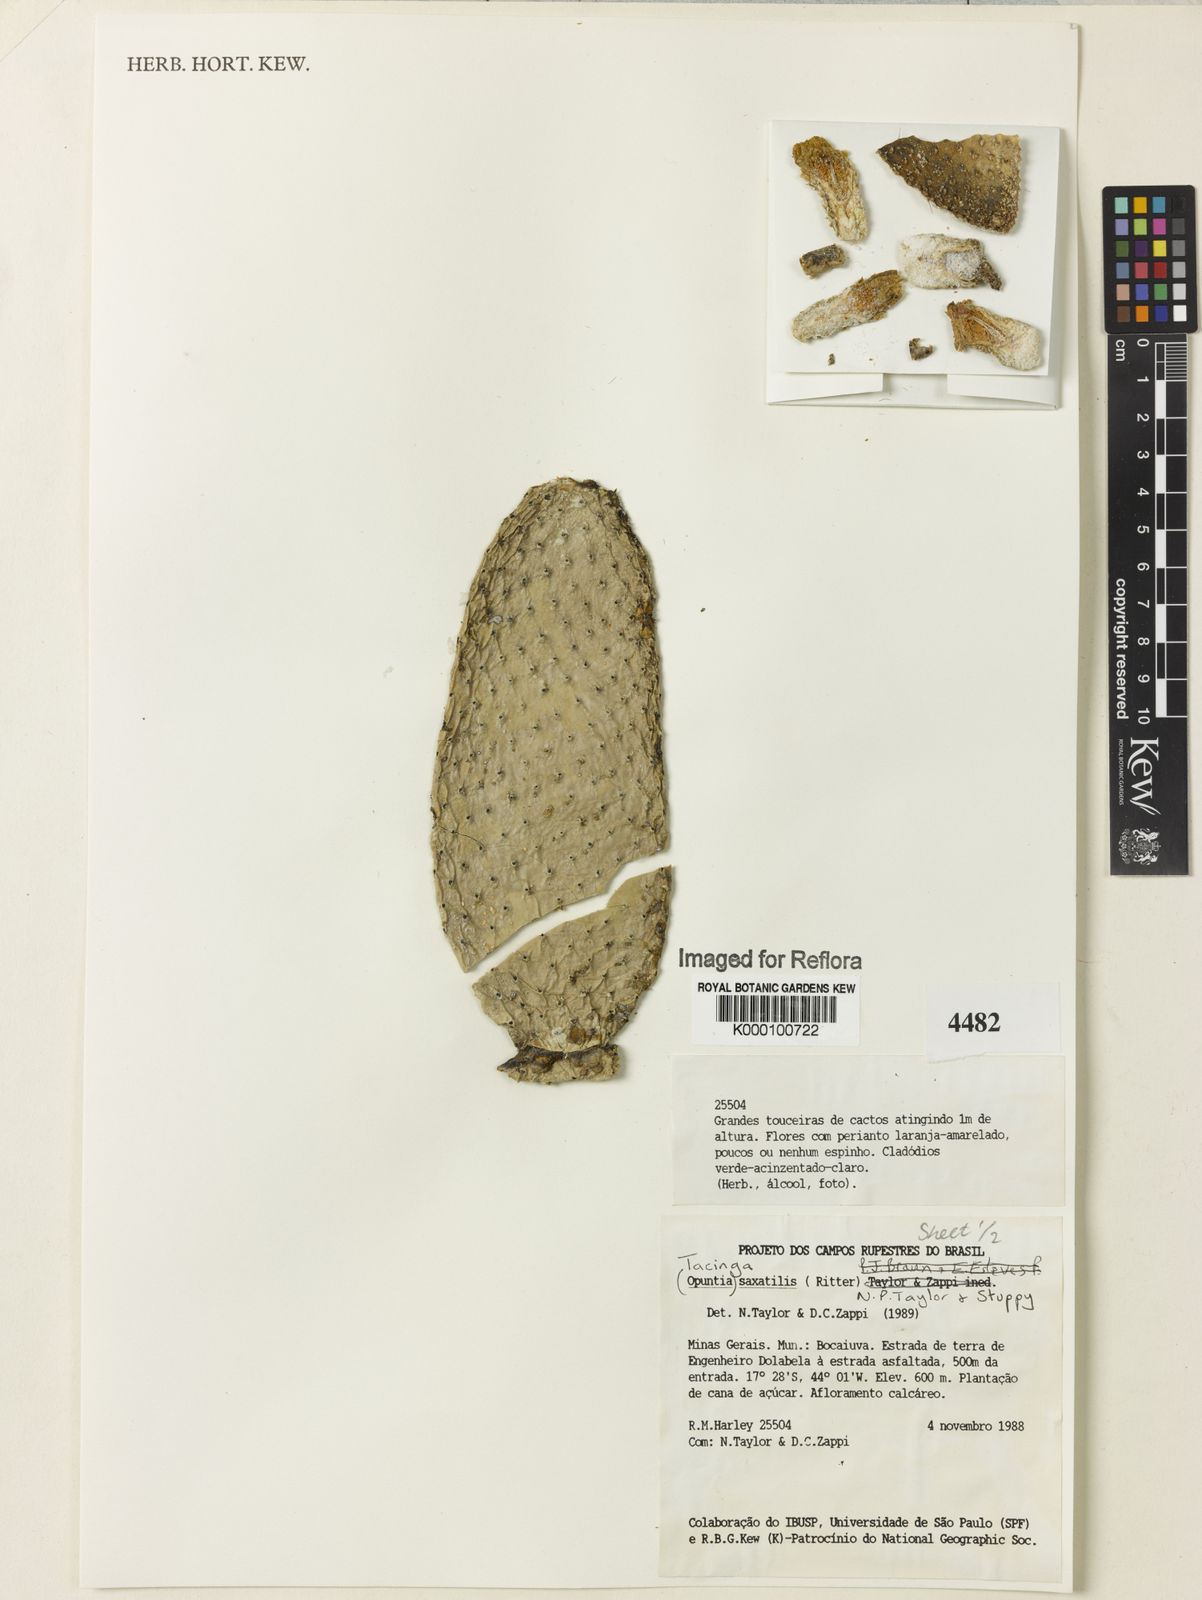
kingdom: Plantae
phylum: Tracheophyta
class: Magnoliopsida
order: Caryophyllales
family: Cactaceae
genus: Tacinga
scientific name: Tacinga saxatilis
